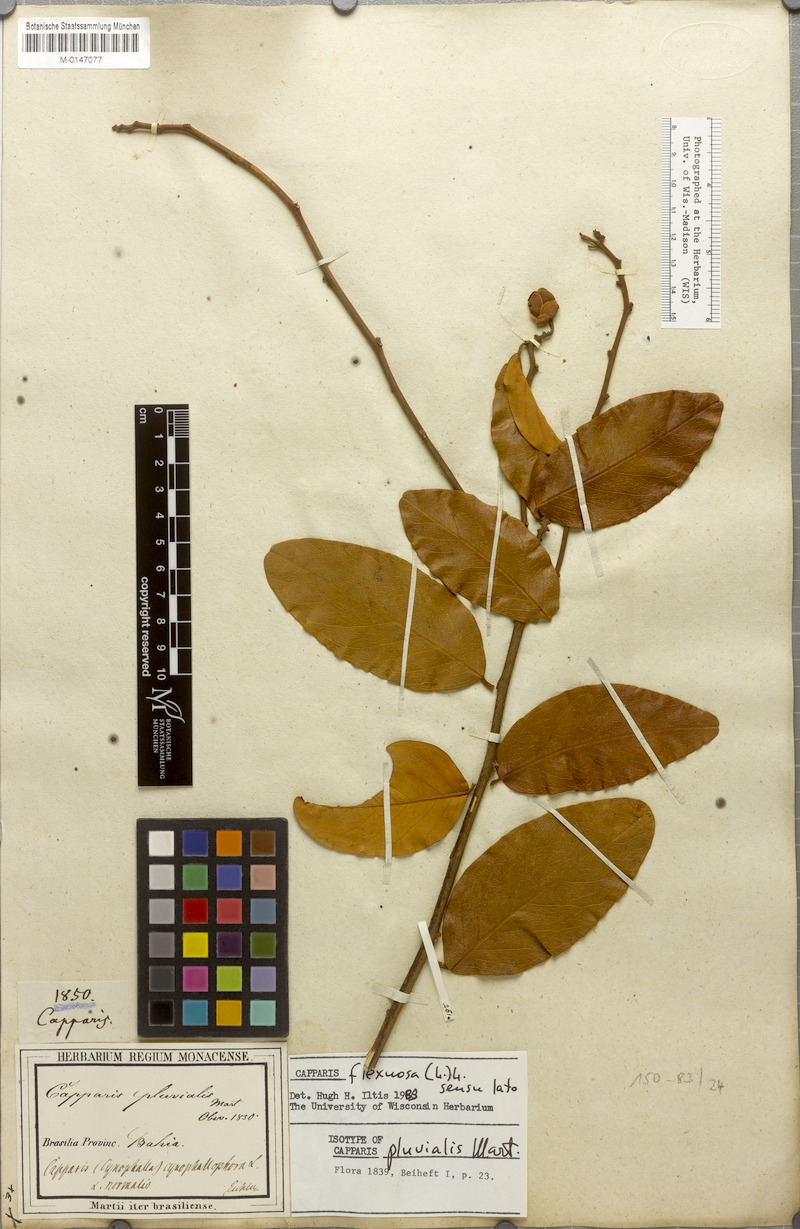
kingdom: Plantae
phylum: Tracheophyta
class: Magnoliopsida
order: Brassicales
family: Capparaceae
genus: Cynophalla
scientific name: Cynophalla flexuosa
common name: Capertree
